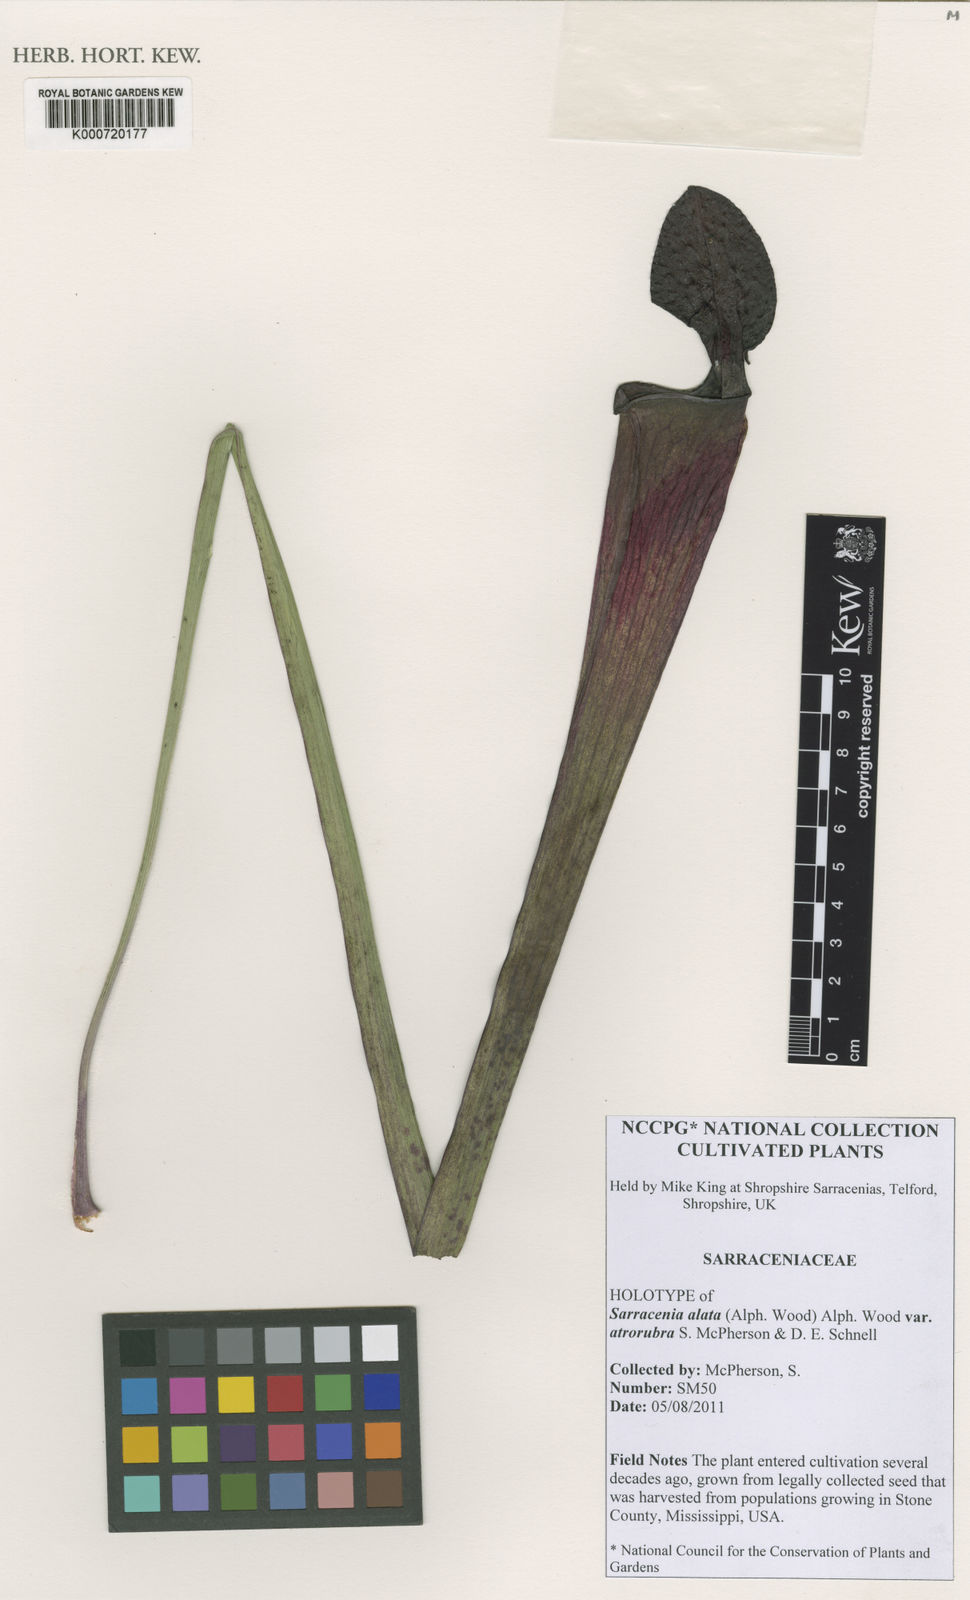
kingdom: Plantae
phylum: Tracheophyta
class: Magnoliopsida
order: Ericales
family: Sarraceniaceae
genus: Sarracenia
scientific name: Sarracenia alata
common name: Yellow trumpets
